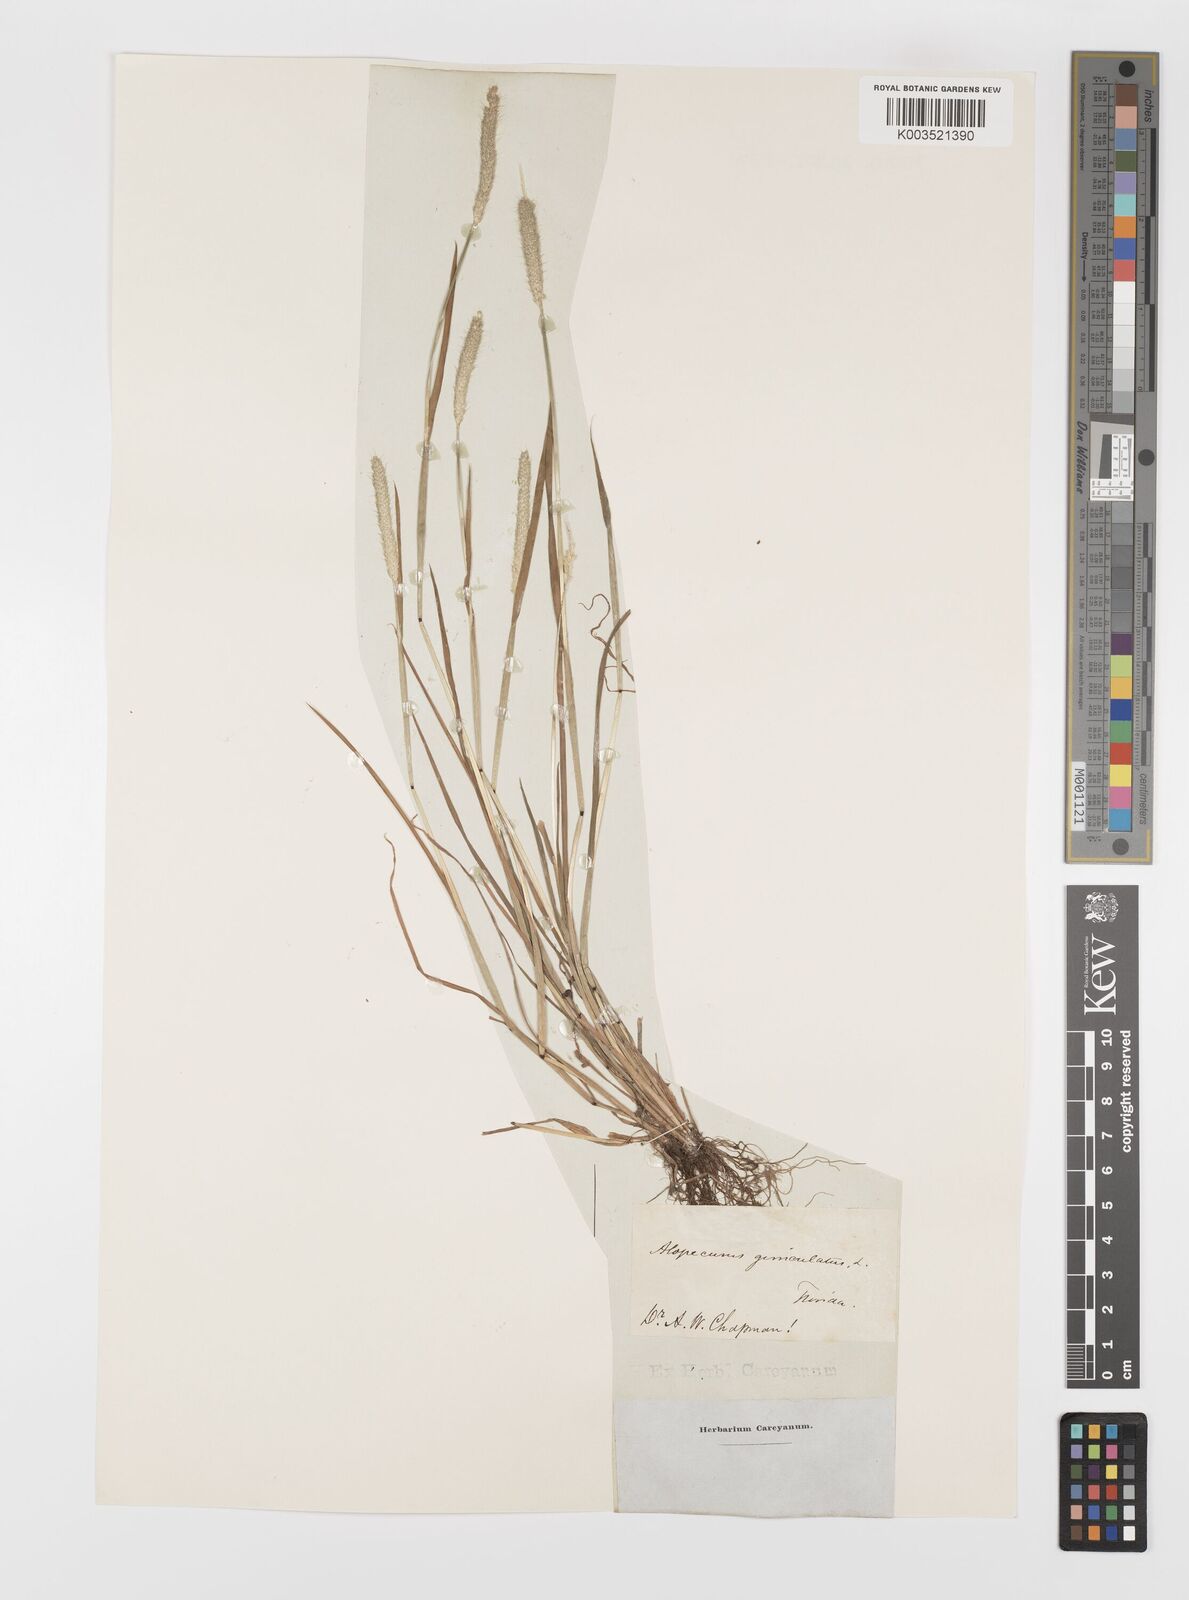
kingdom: Plantae
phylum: Tracheophyta
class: Liliopsida
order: Poales
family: Poaceae
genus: Alopecurus
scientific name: Alopecurus geniculatus
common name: Water foxtail
